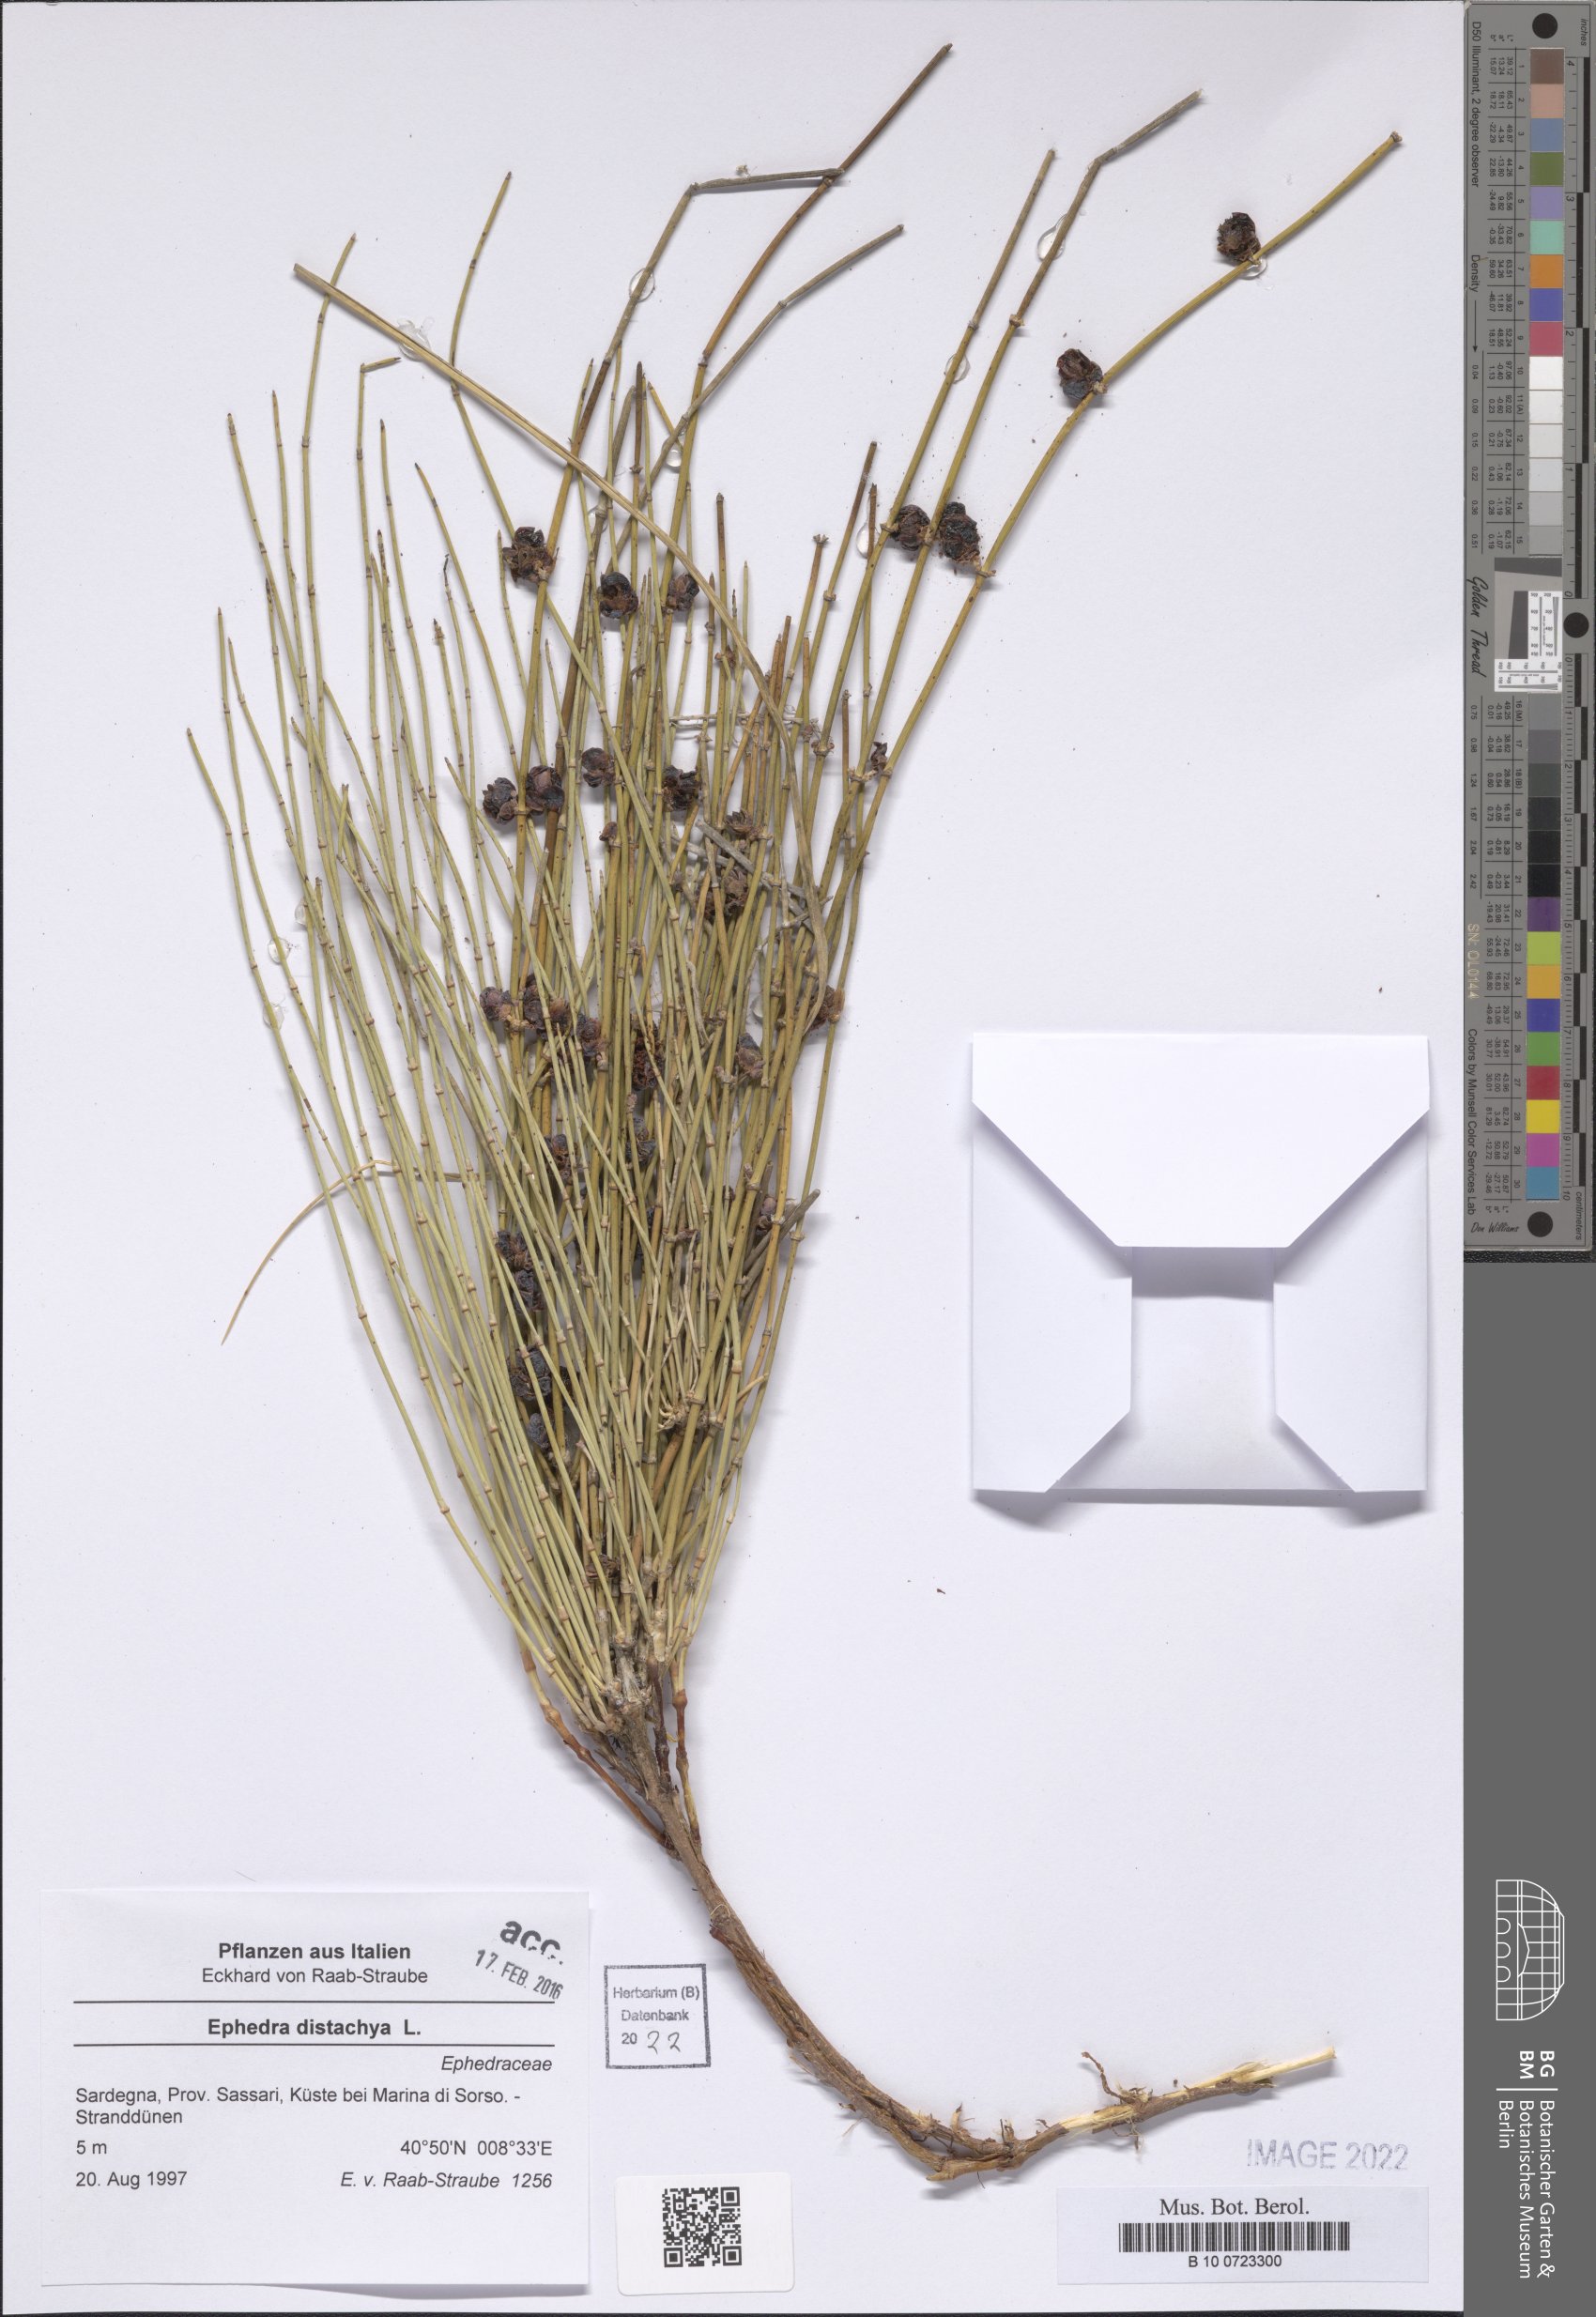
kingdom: Plantae
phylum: Tracheophyta
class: Gnetopsida
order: Ephedrales
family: Ephedraceae
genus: Ephedra
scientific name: Ephedra distachya
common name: Sea grape
